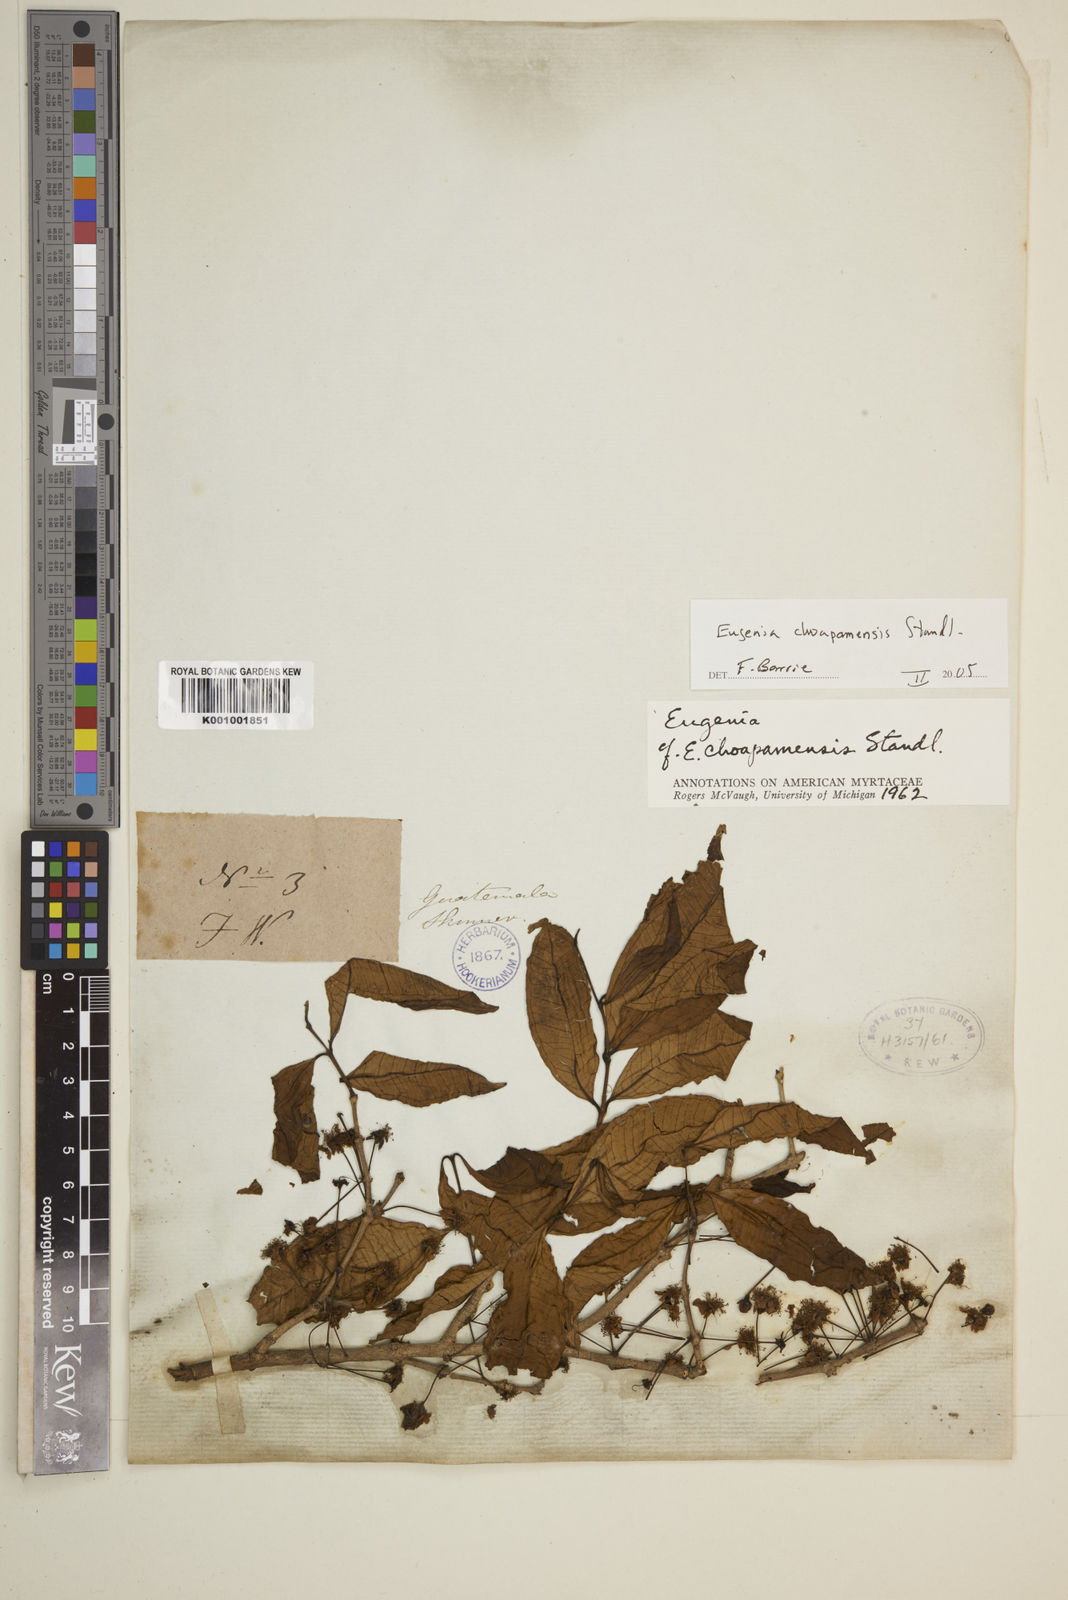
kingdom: Plantae
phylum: Tracheophyta
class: Magnoliopsida
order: Myrtales
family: Myrtaceae
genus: Eugenia
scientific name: Eugenia choapamensis
